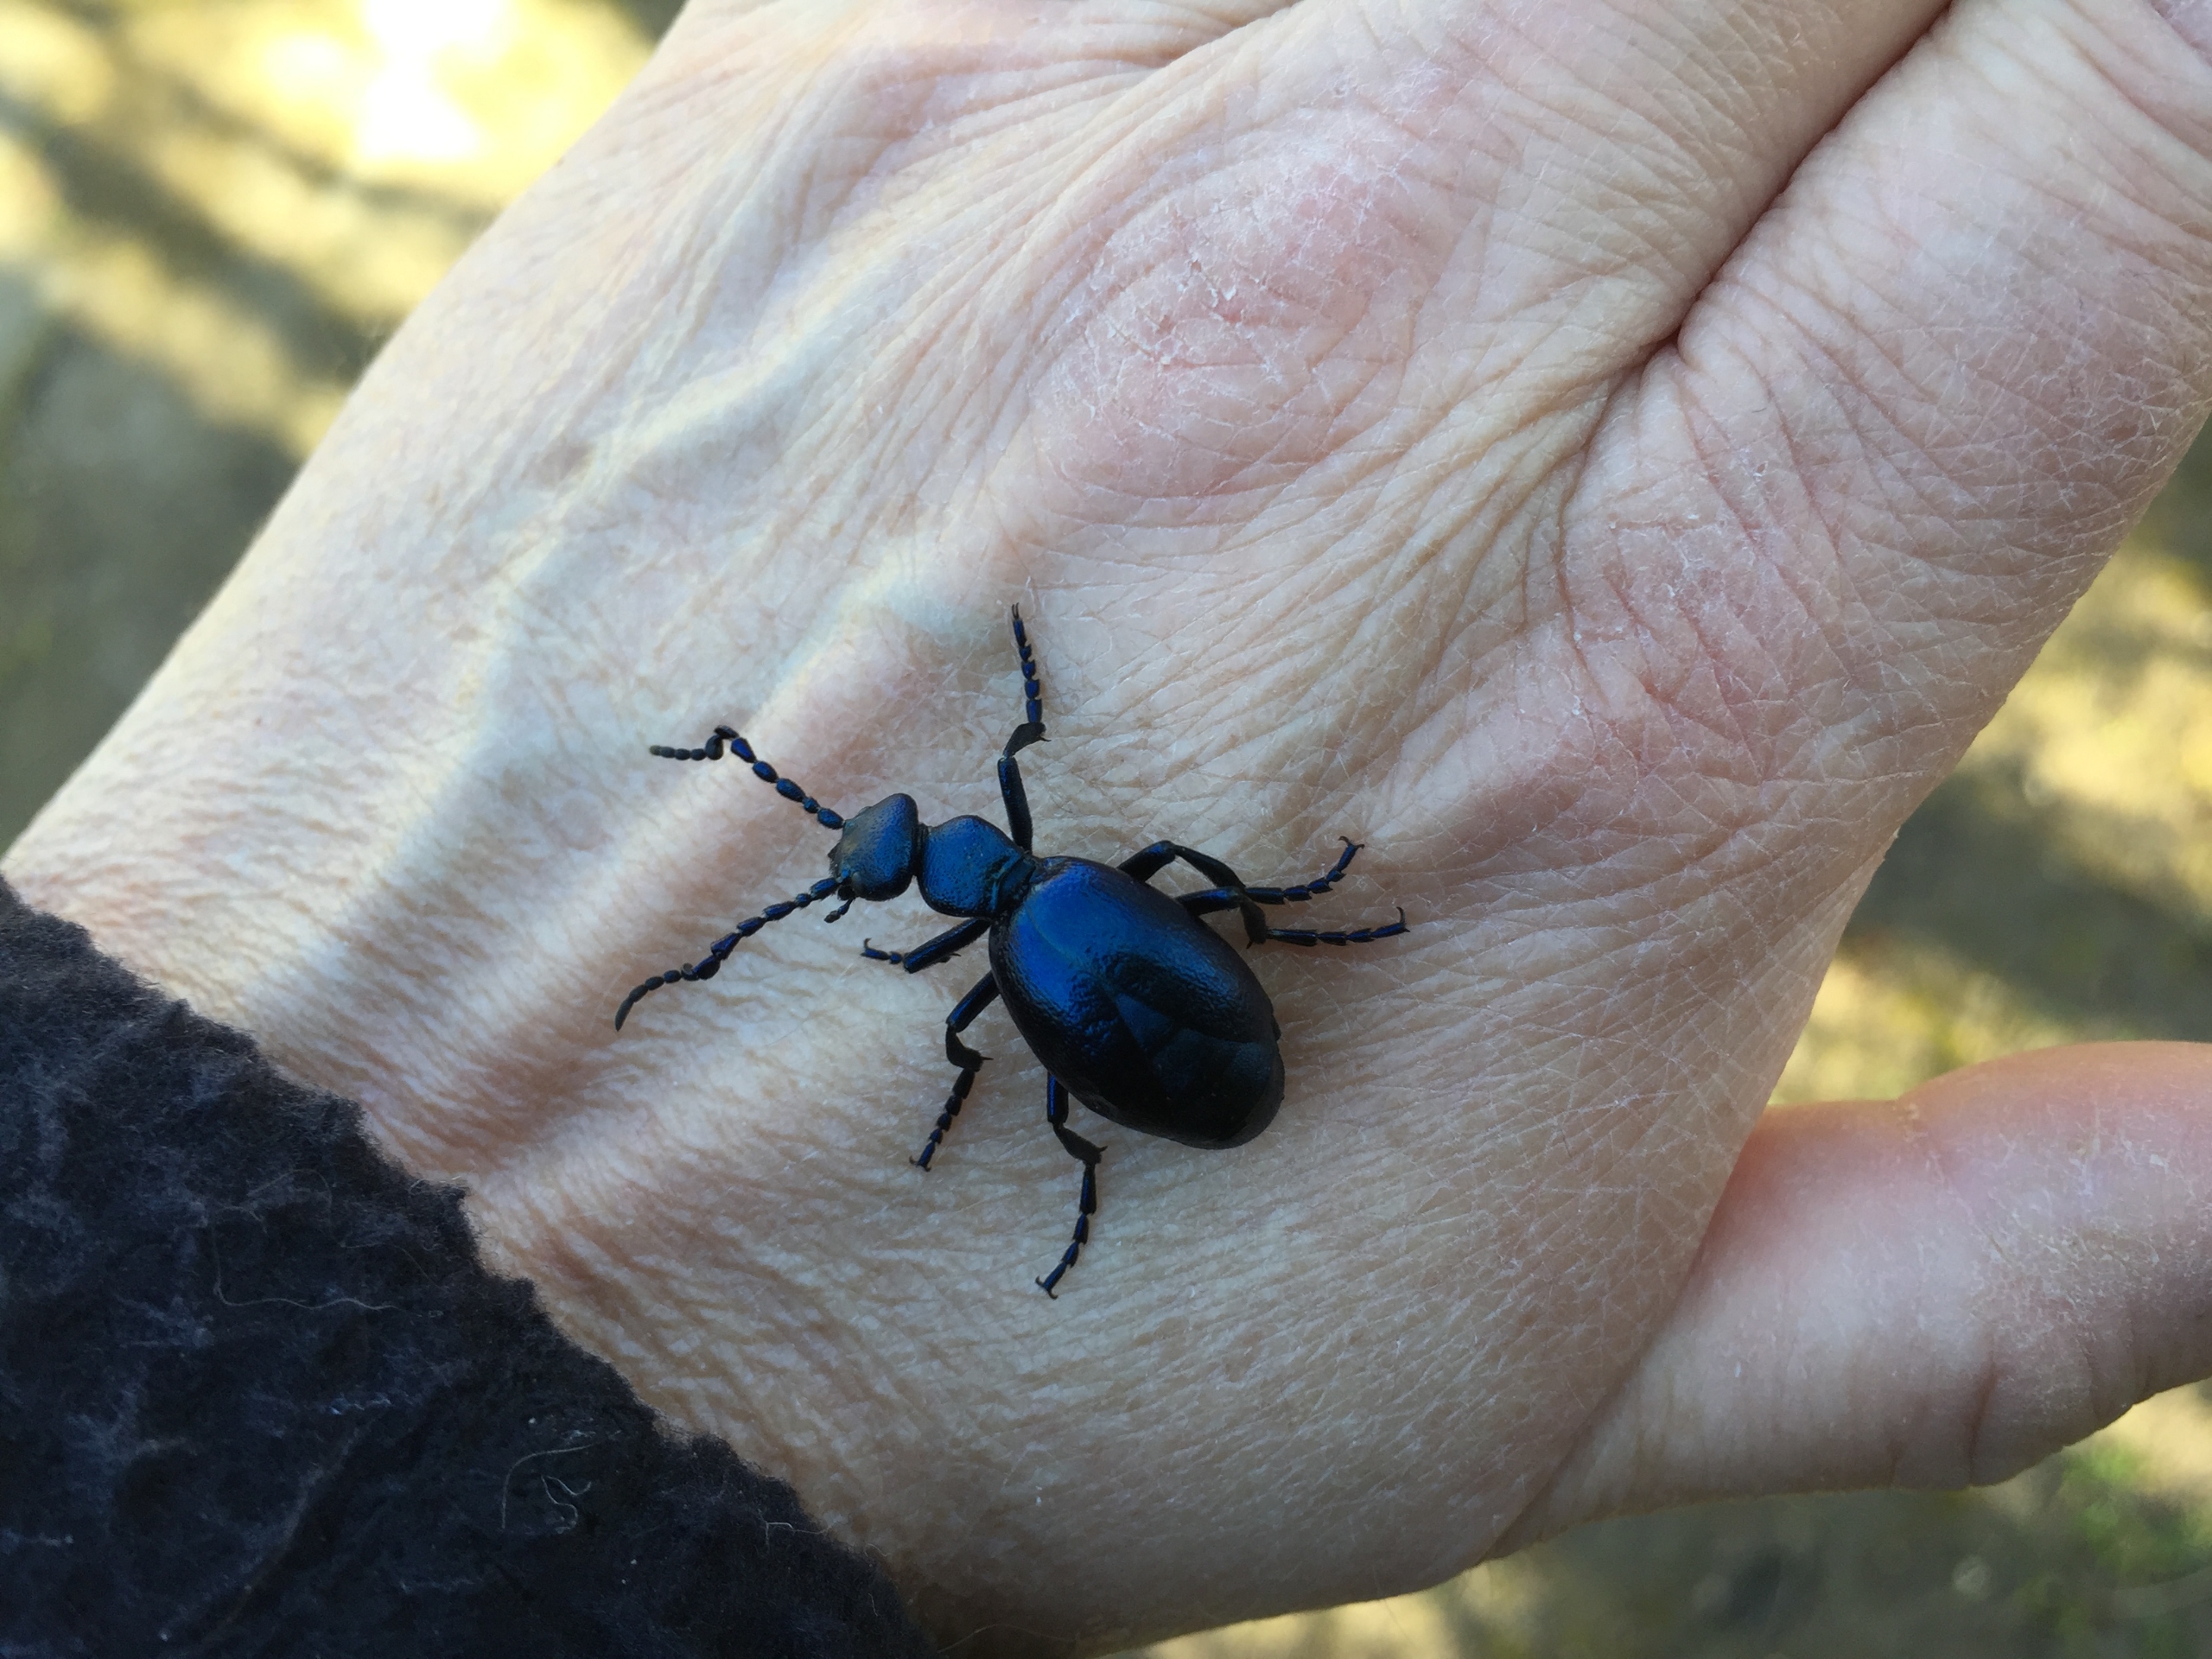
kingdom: Animalia
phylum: Arthropoda
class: Insecta
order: Coleoptera
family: Meloidae
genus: Meloe
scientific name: Meloe violaceus
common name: Blå oliebille
